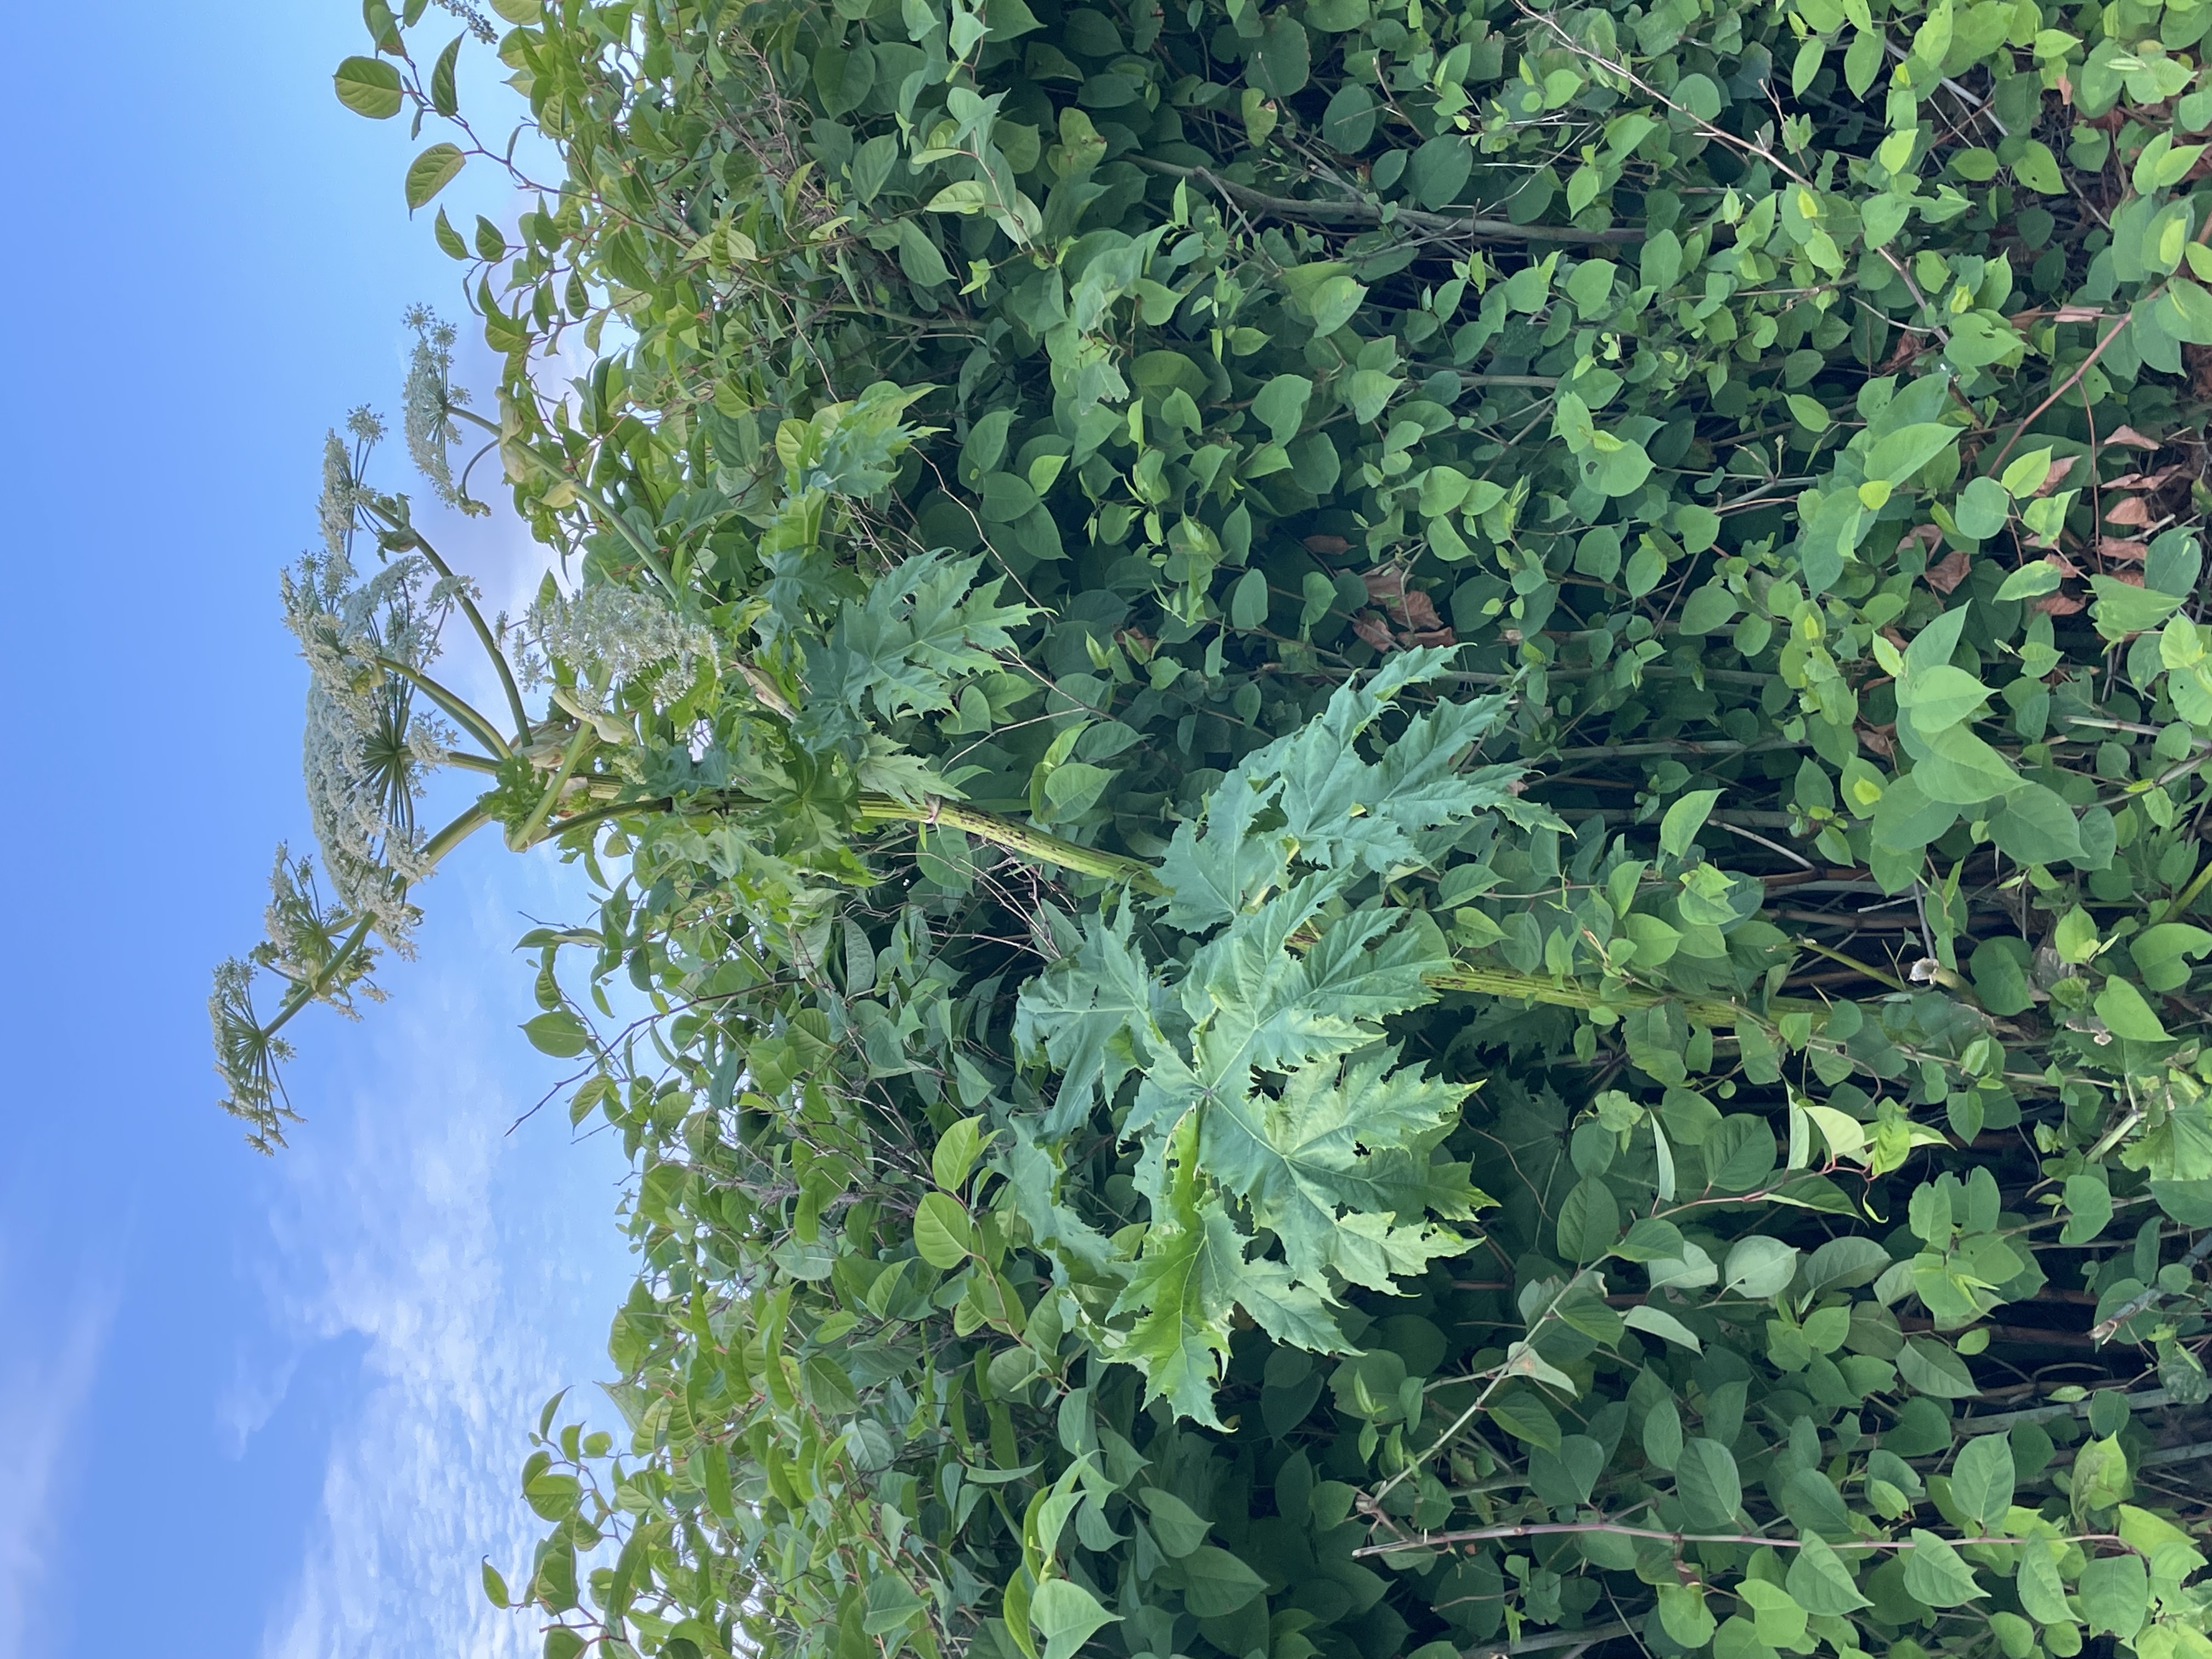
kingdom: Plantae
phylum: Tracheophyta
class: Magnoliopsida
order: Apiales
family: Apiaceae
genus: Heracleum
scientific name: Heracleum mantegazzianum
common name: Kæmpe-bjørneklo
